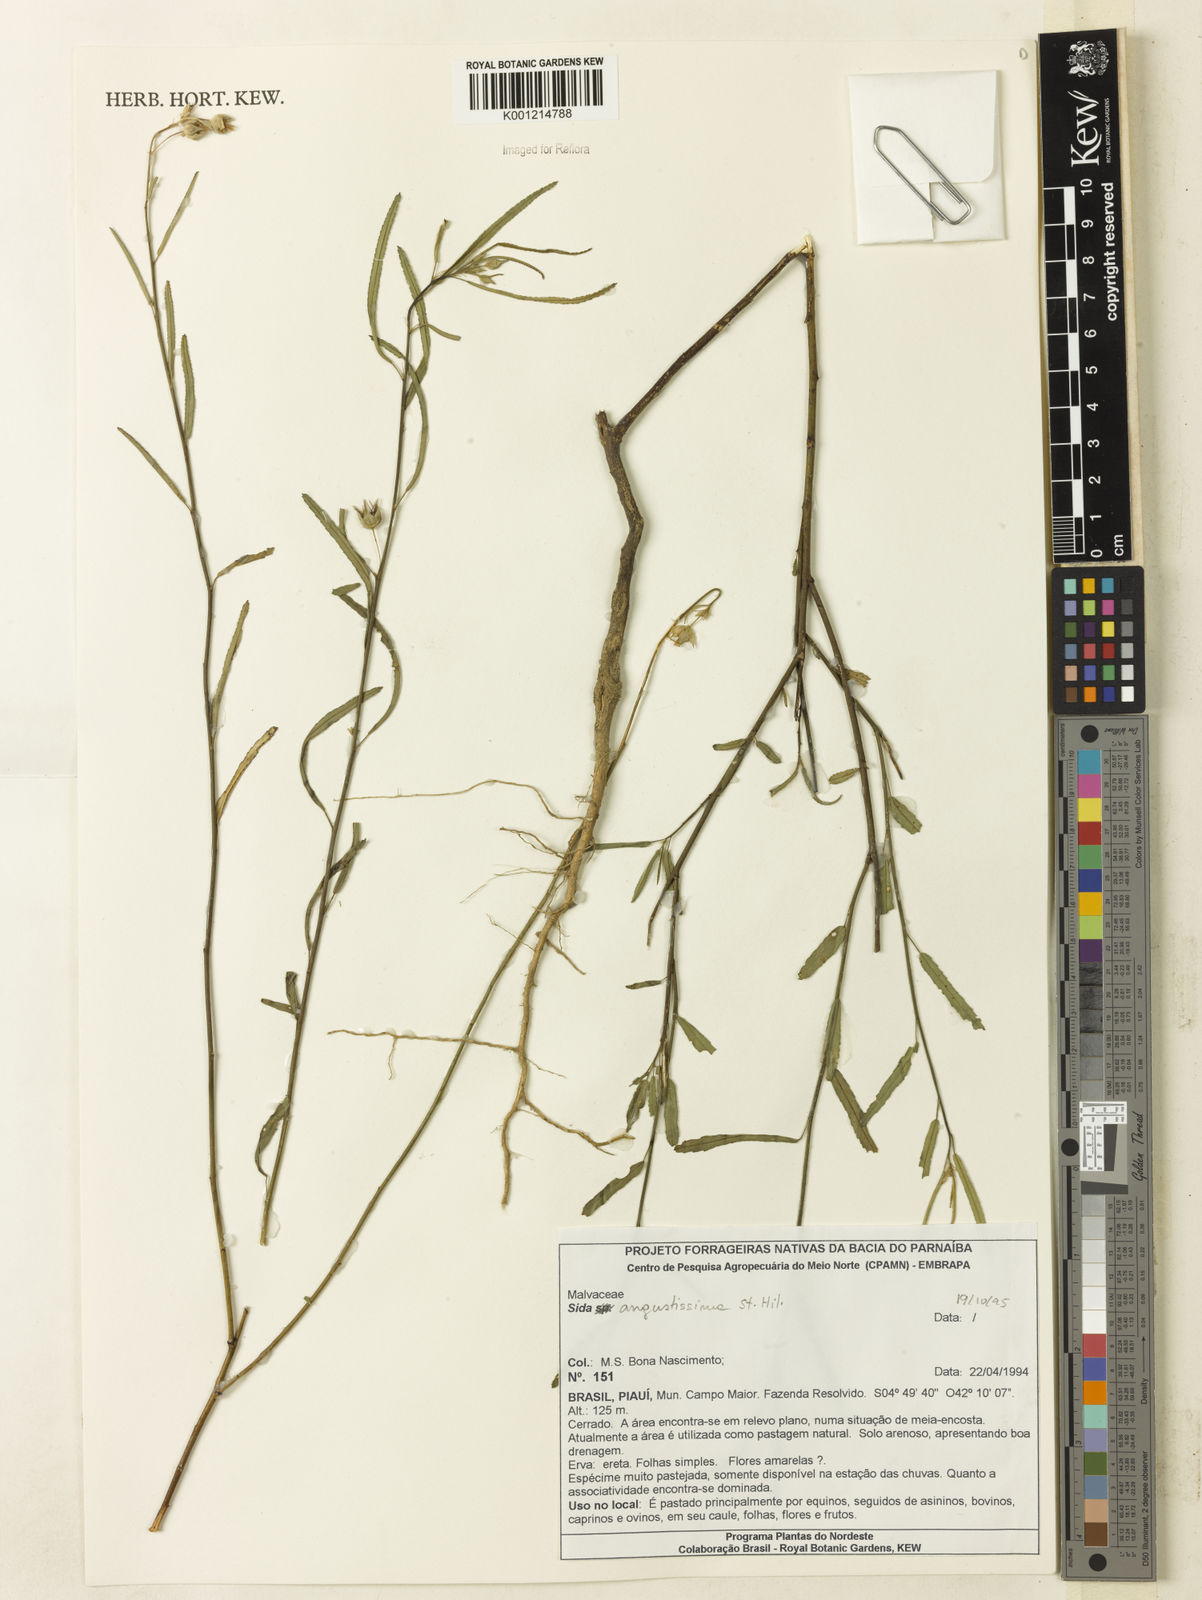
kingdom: Plantae
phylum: Tracheophyta
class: Magnoliopsida
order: Malvales
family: Malvaceae
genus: Sida
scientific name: Sida angustissima
